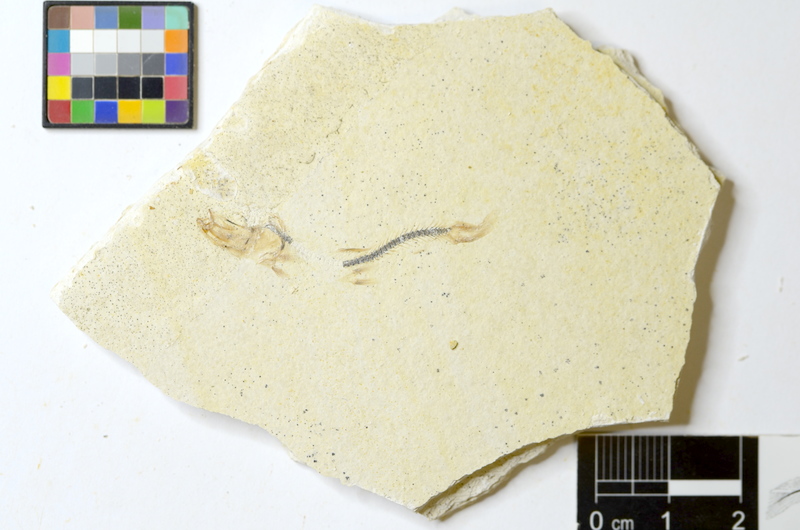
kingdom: Animalia
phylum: Chordata
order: Salmoniformes
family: Orthogonikleithridae
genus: Orthogonikleithrus
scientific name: Orthogonikleithrus hoelli
